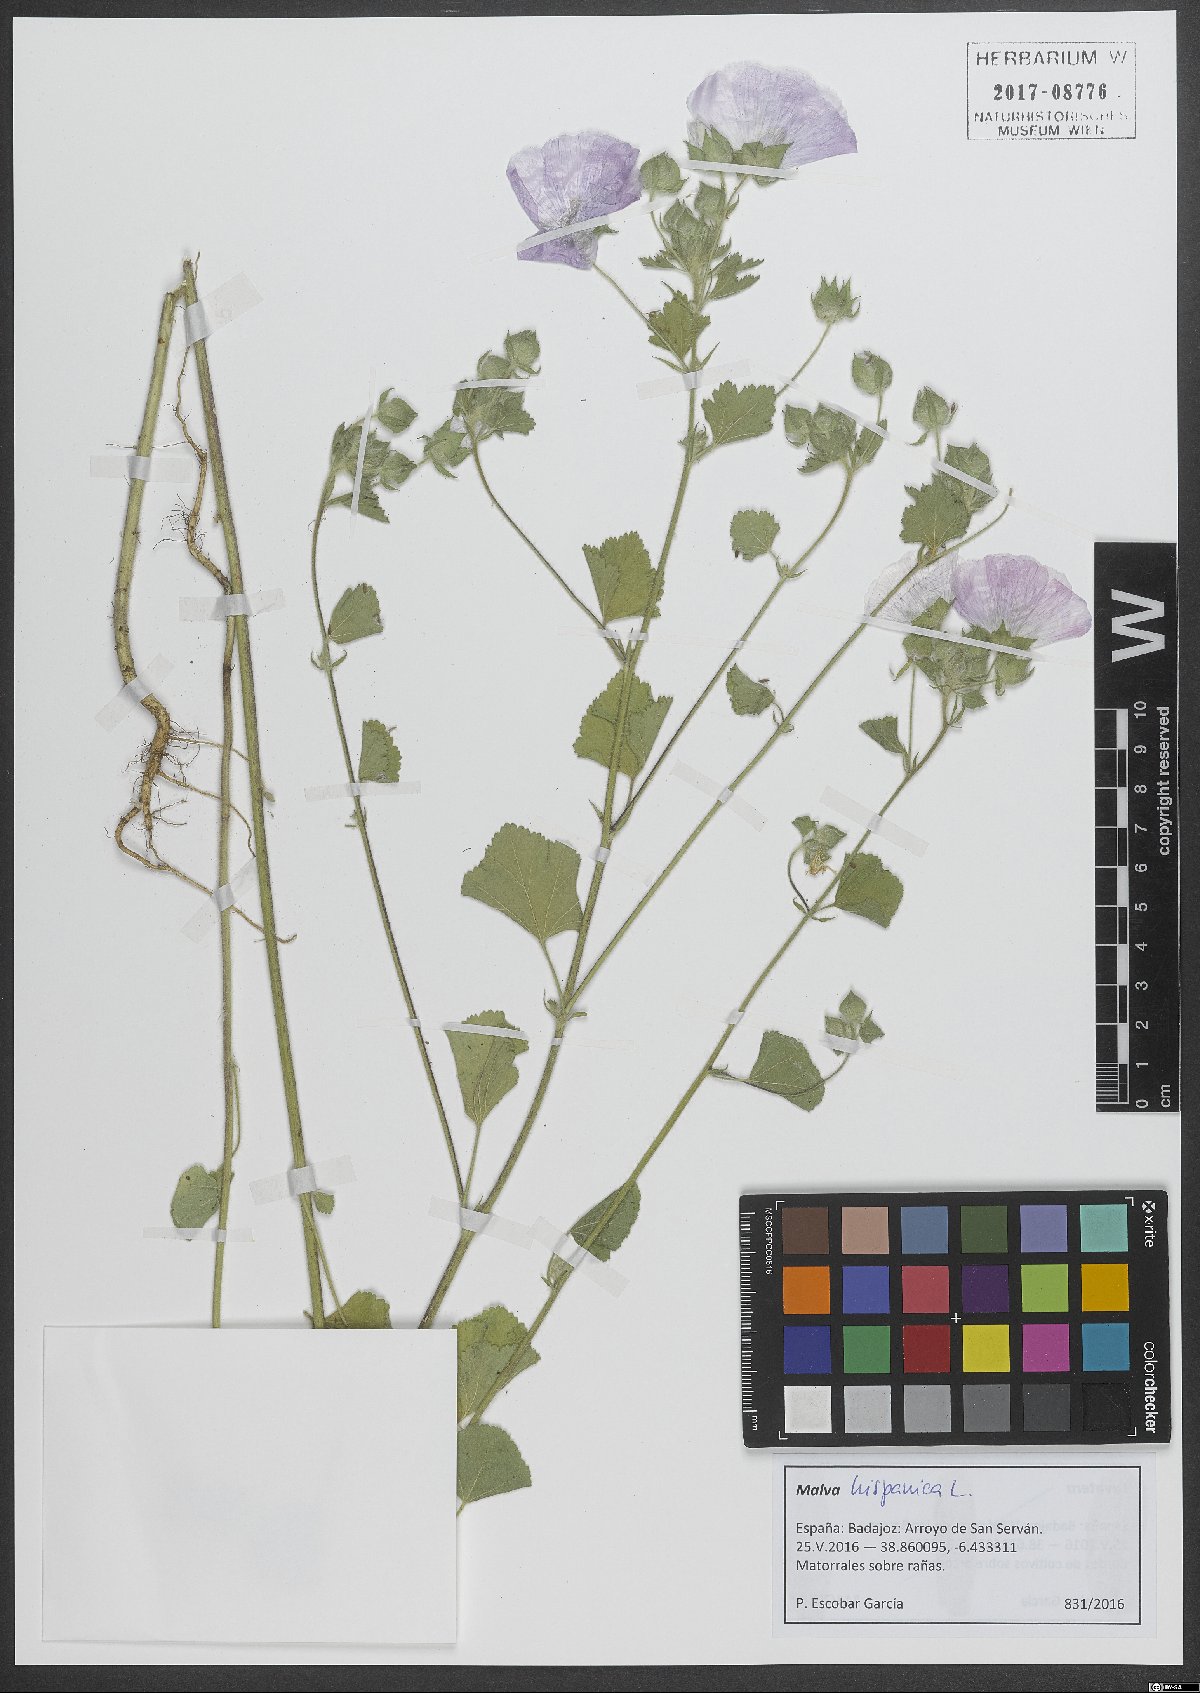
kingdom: Plantae
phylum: Tracheophyta
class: Magnoliopsida
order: Malvales
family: Malvaceae
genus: Malva
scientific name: Malva hispanica
